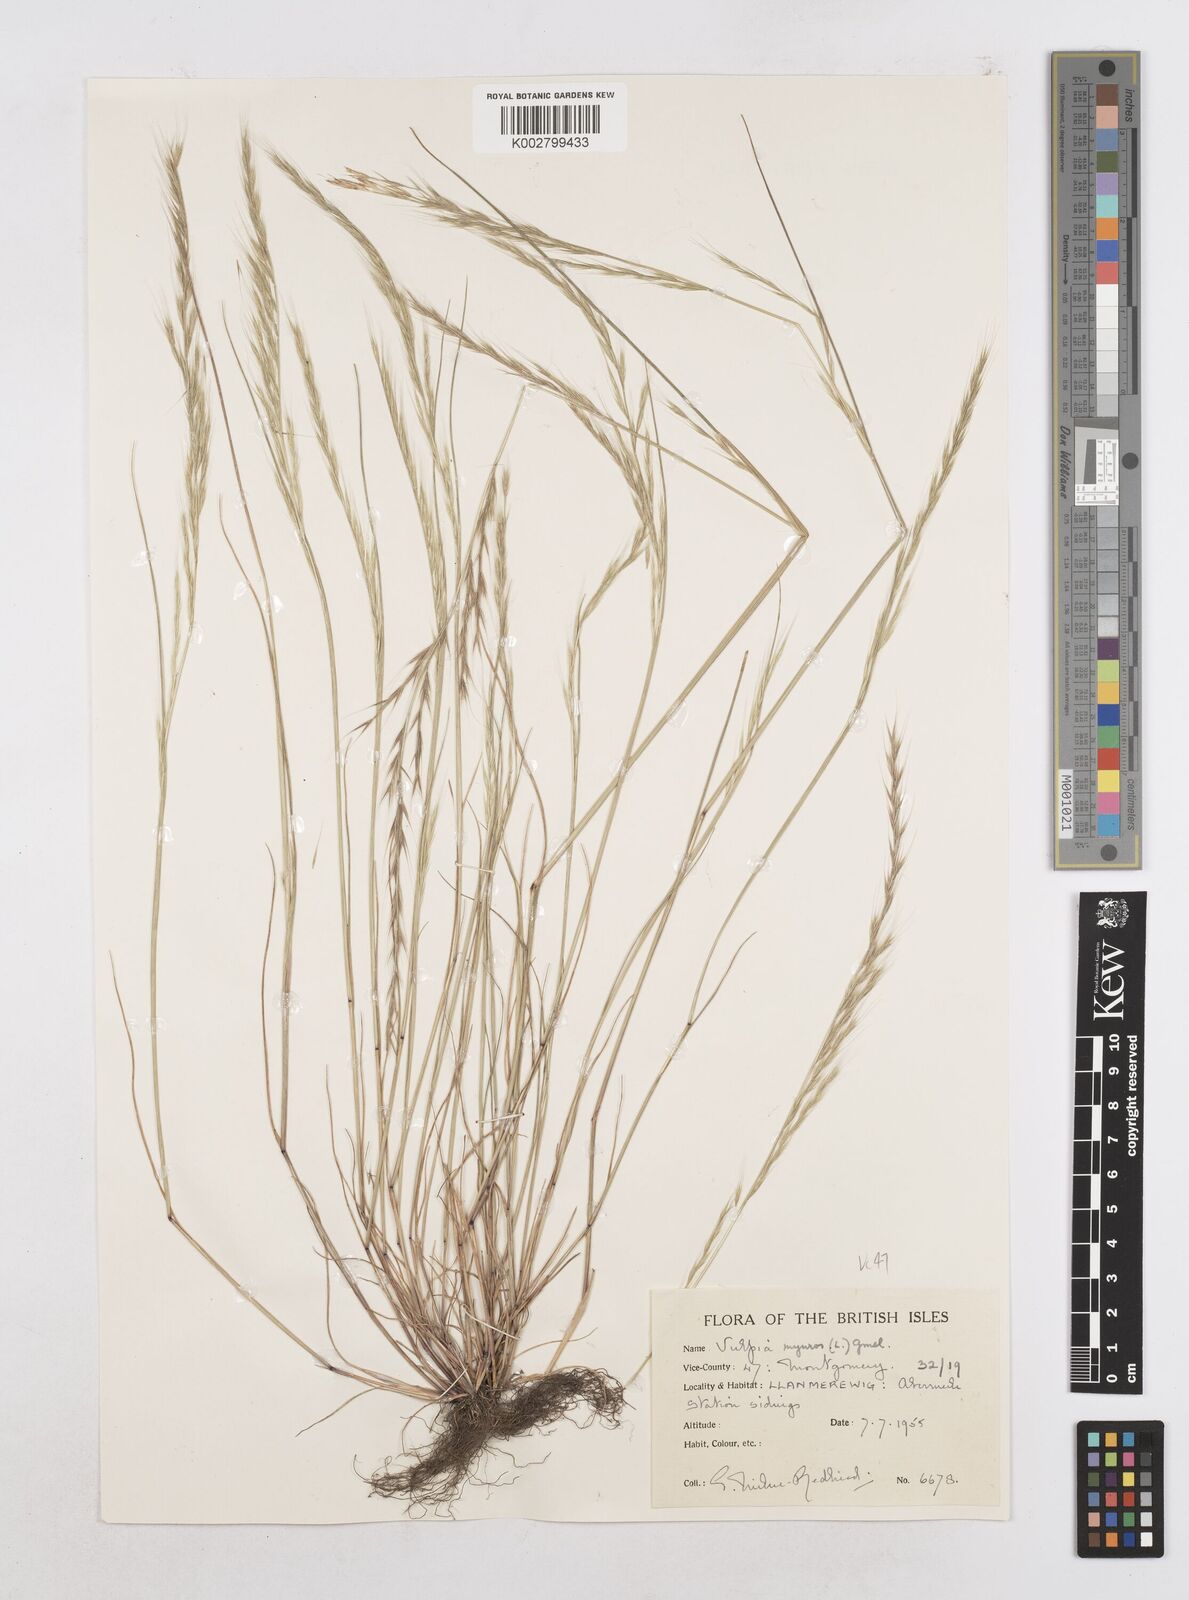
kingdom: Plantae
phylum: Tracheophyta
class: Liliopsida
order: Poales
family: Poaceae
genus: Festuca
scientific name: Festuca myuros
